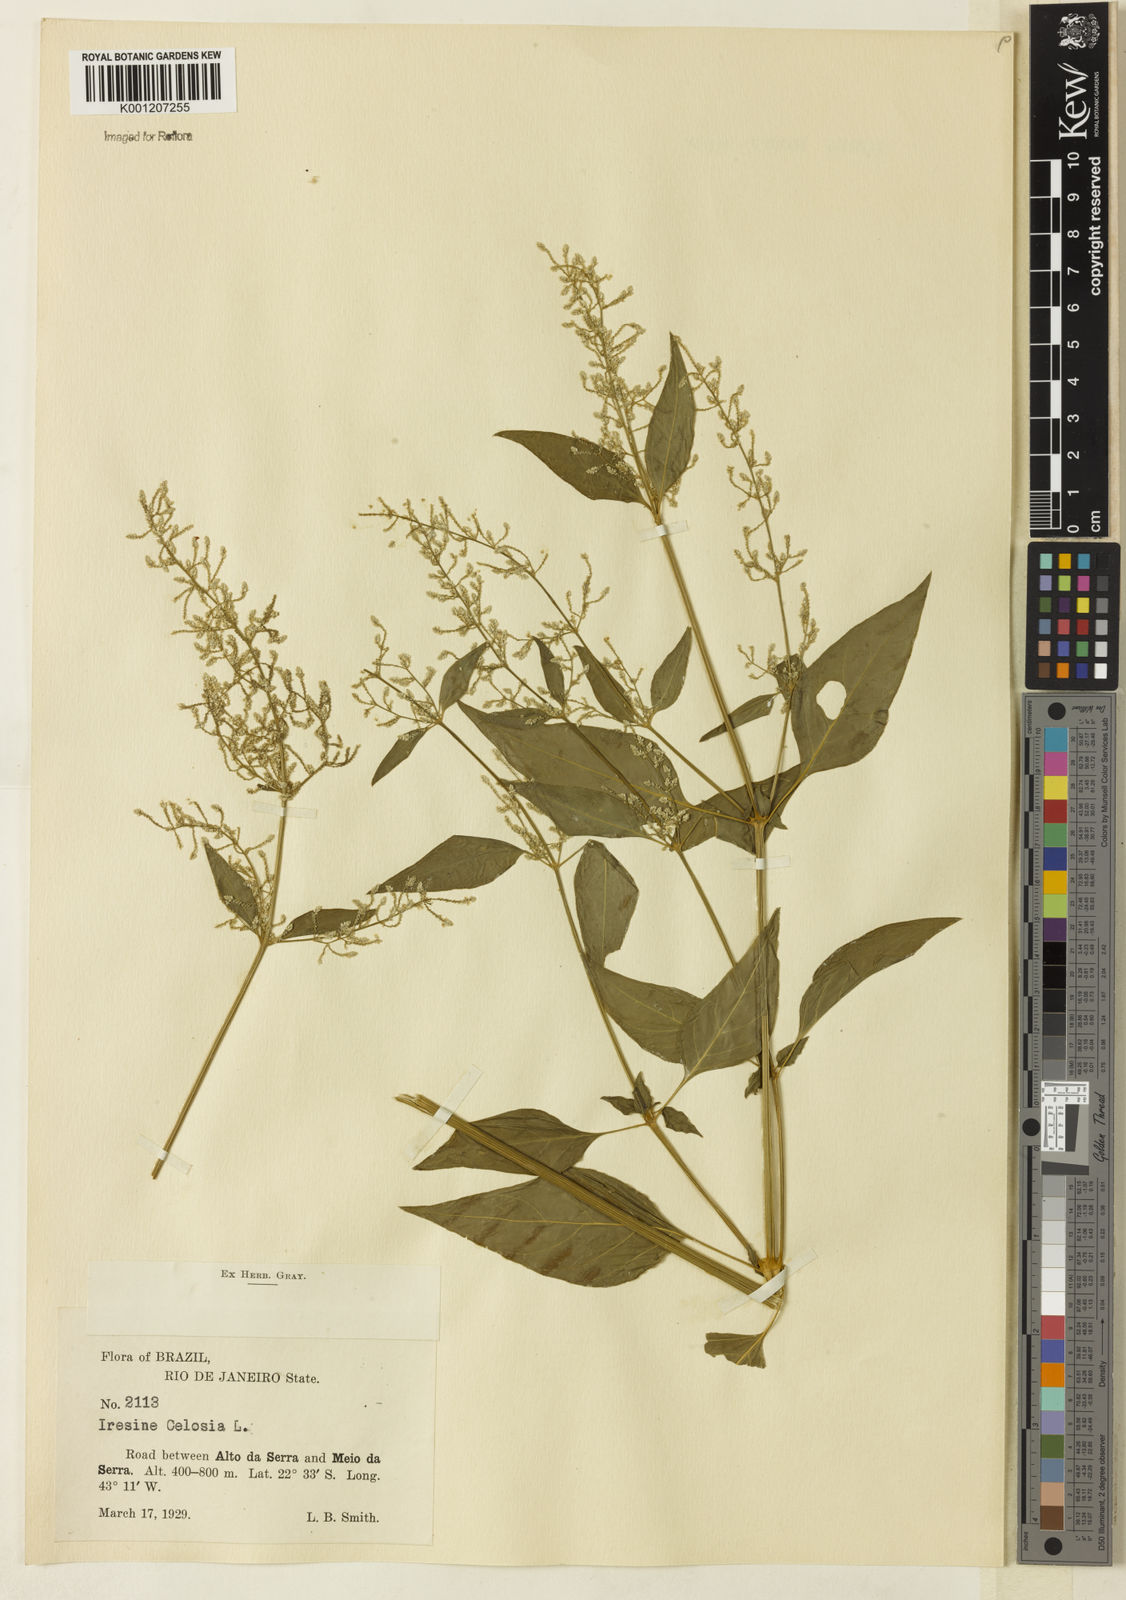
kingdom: Plantae
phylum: Tracheophyta
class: Magnoliopsida
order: Caryophyllales
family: Amaranthaceae
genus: Iresine
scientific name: Iresine rhizomatosa
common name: Juda's-bush
